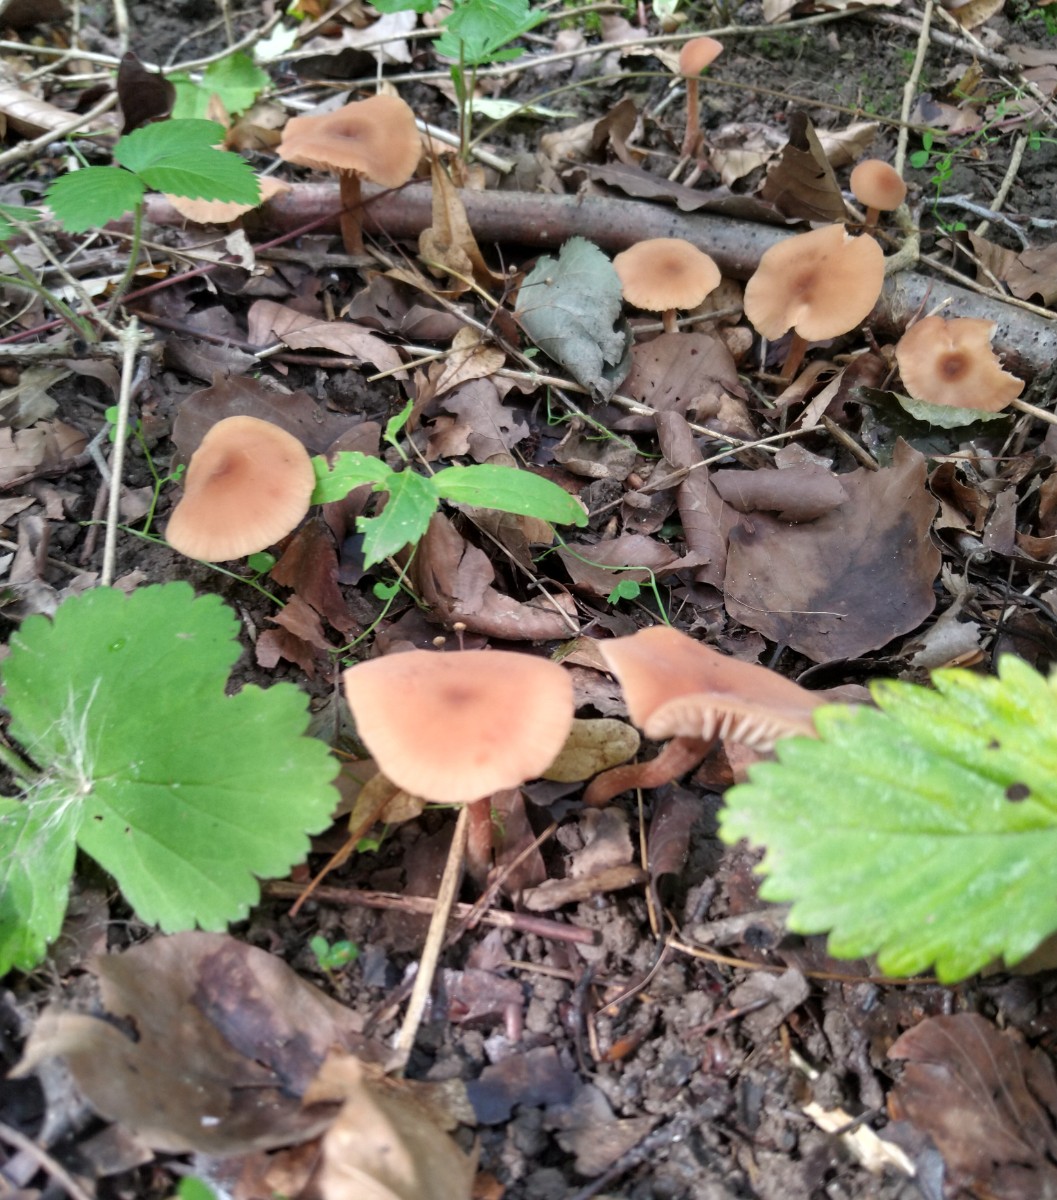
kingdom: Fungi
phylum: Basidiomycota
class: Agaricomycetes
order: Agaricales
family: Hydnangiaceae
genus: Laccaria
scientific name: Laccaria
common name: ametysthat
